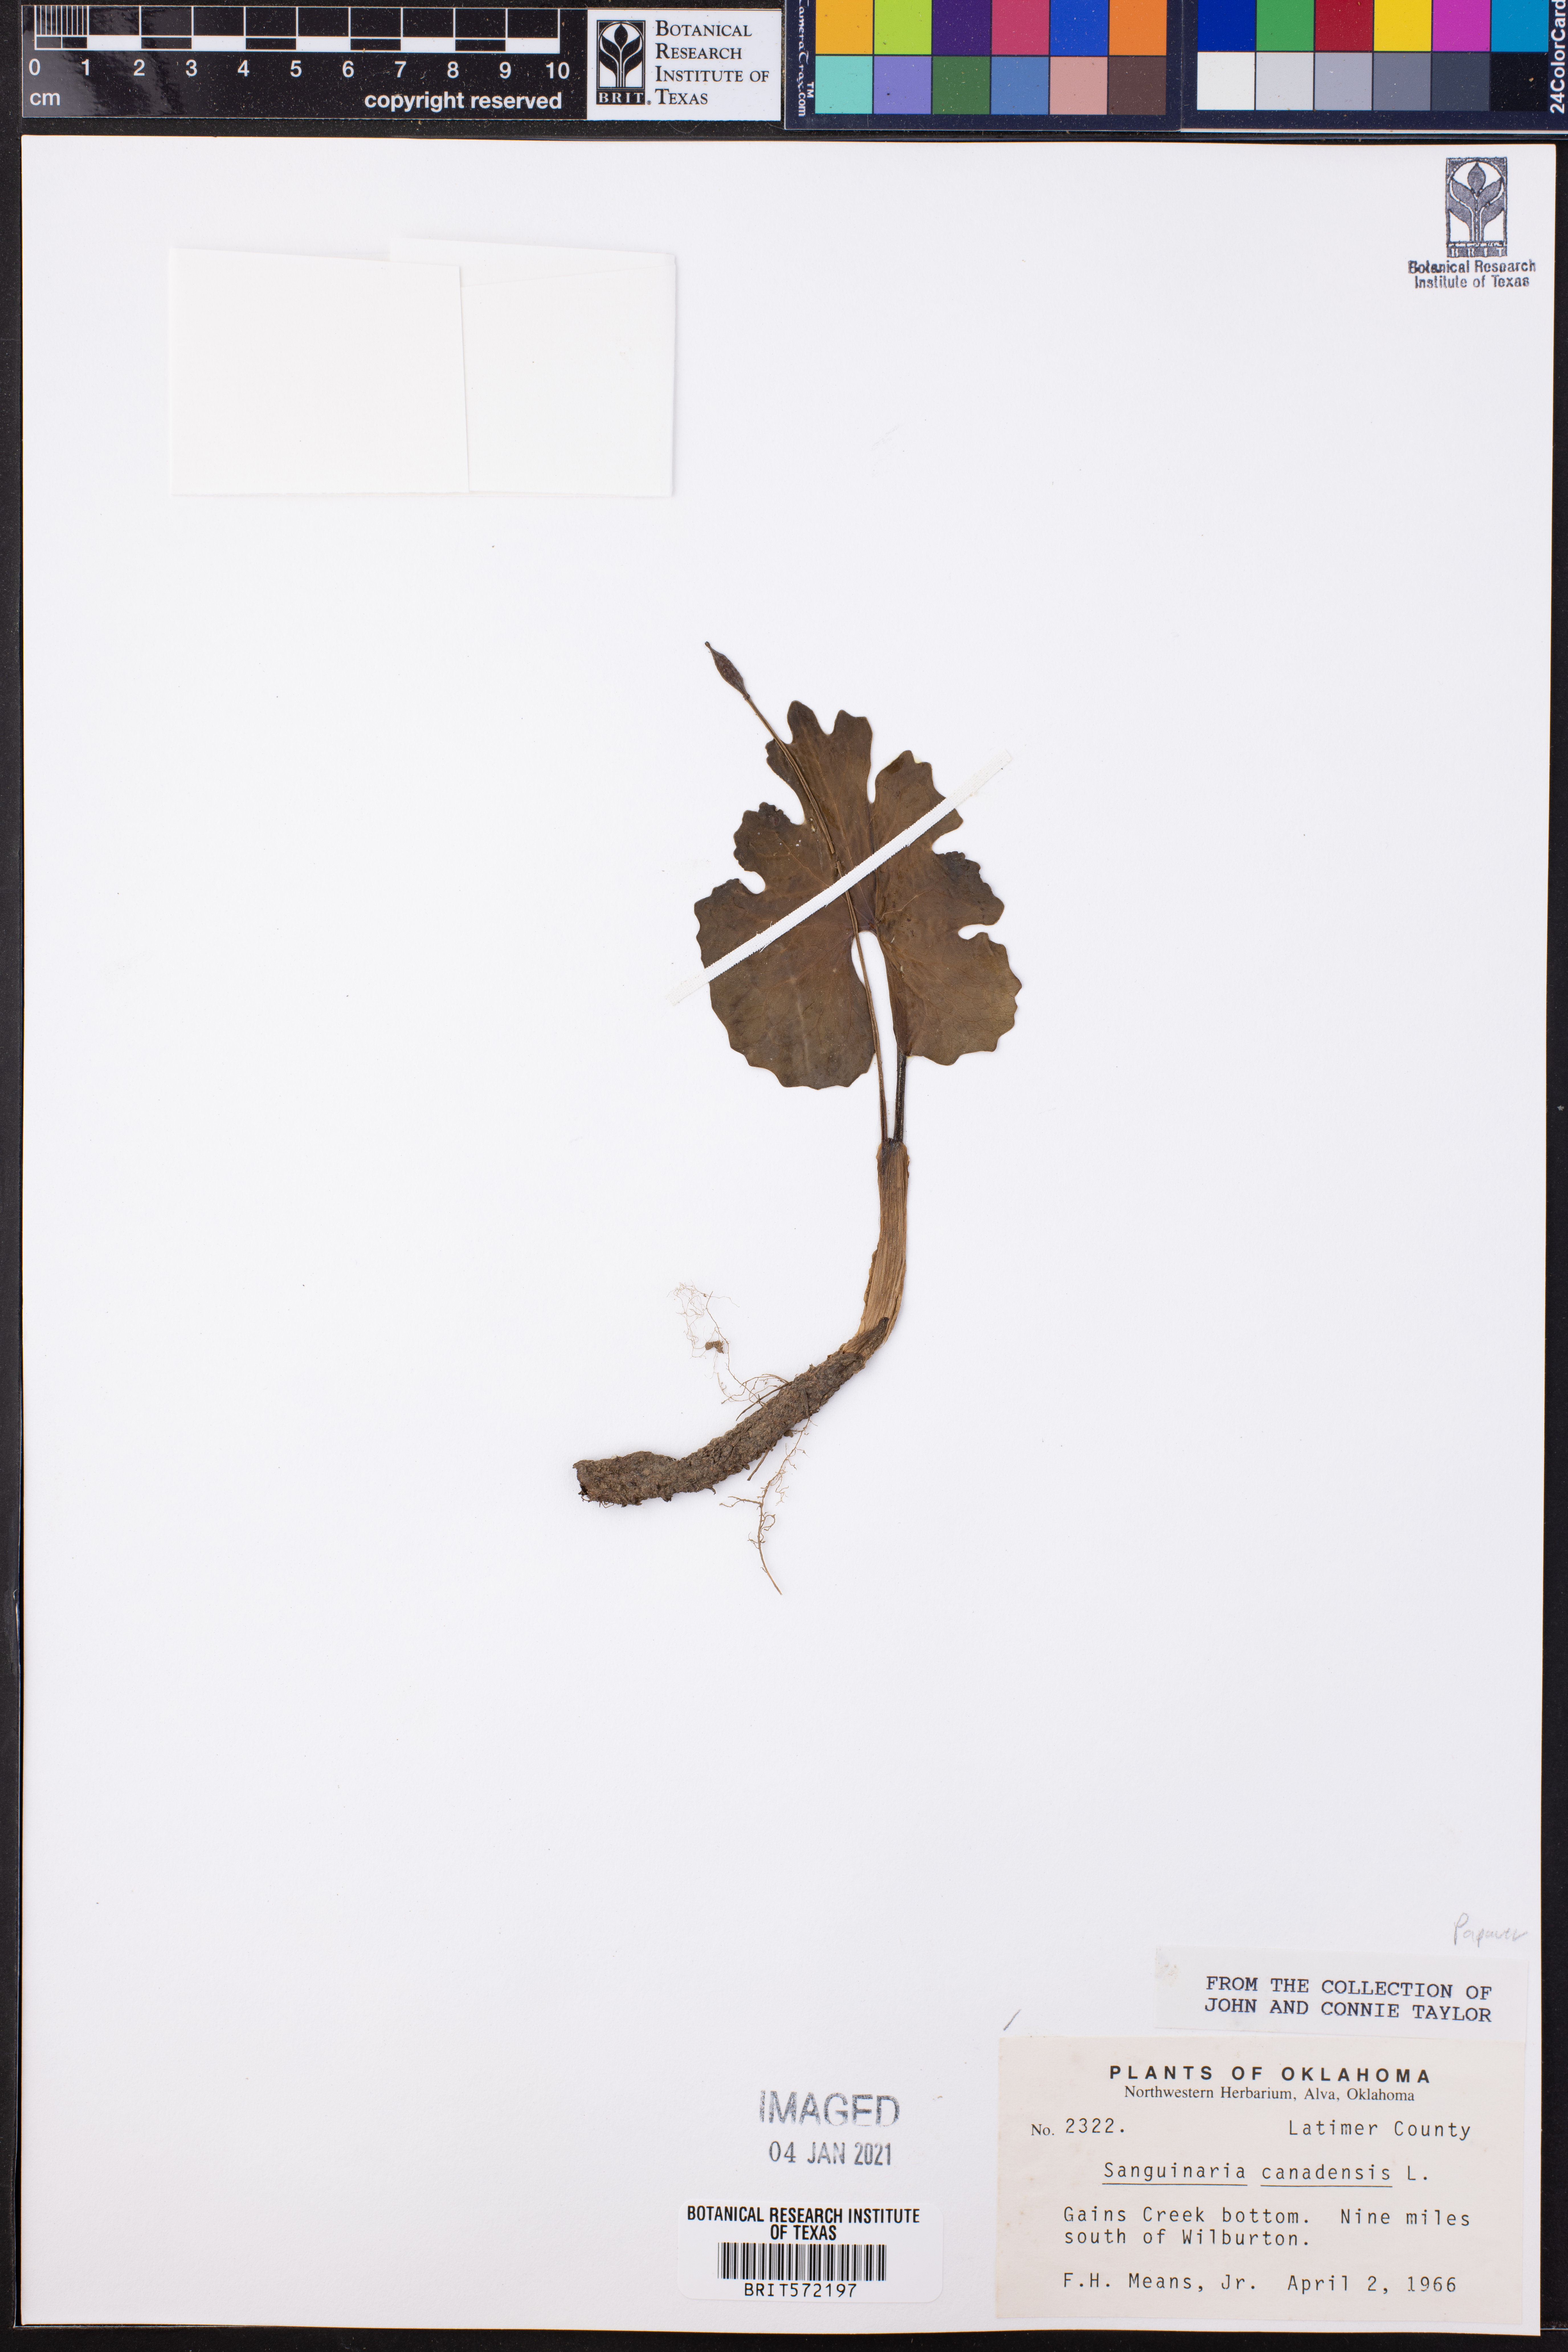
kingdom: Plantae
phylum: Tracheophyta
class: Magnoliopsida
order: Ranunculales
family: Papaveraceae
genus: Sanguinaria
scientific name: Sanguinaria canadensis
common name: Bloodroot
